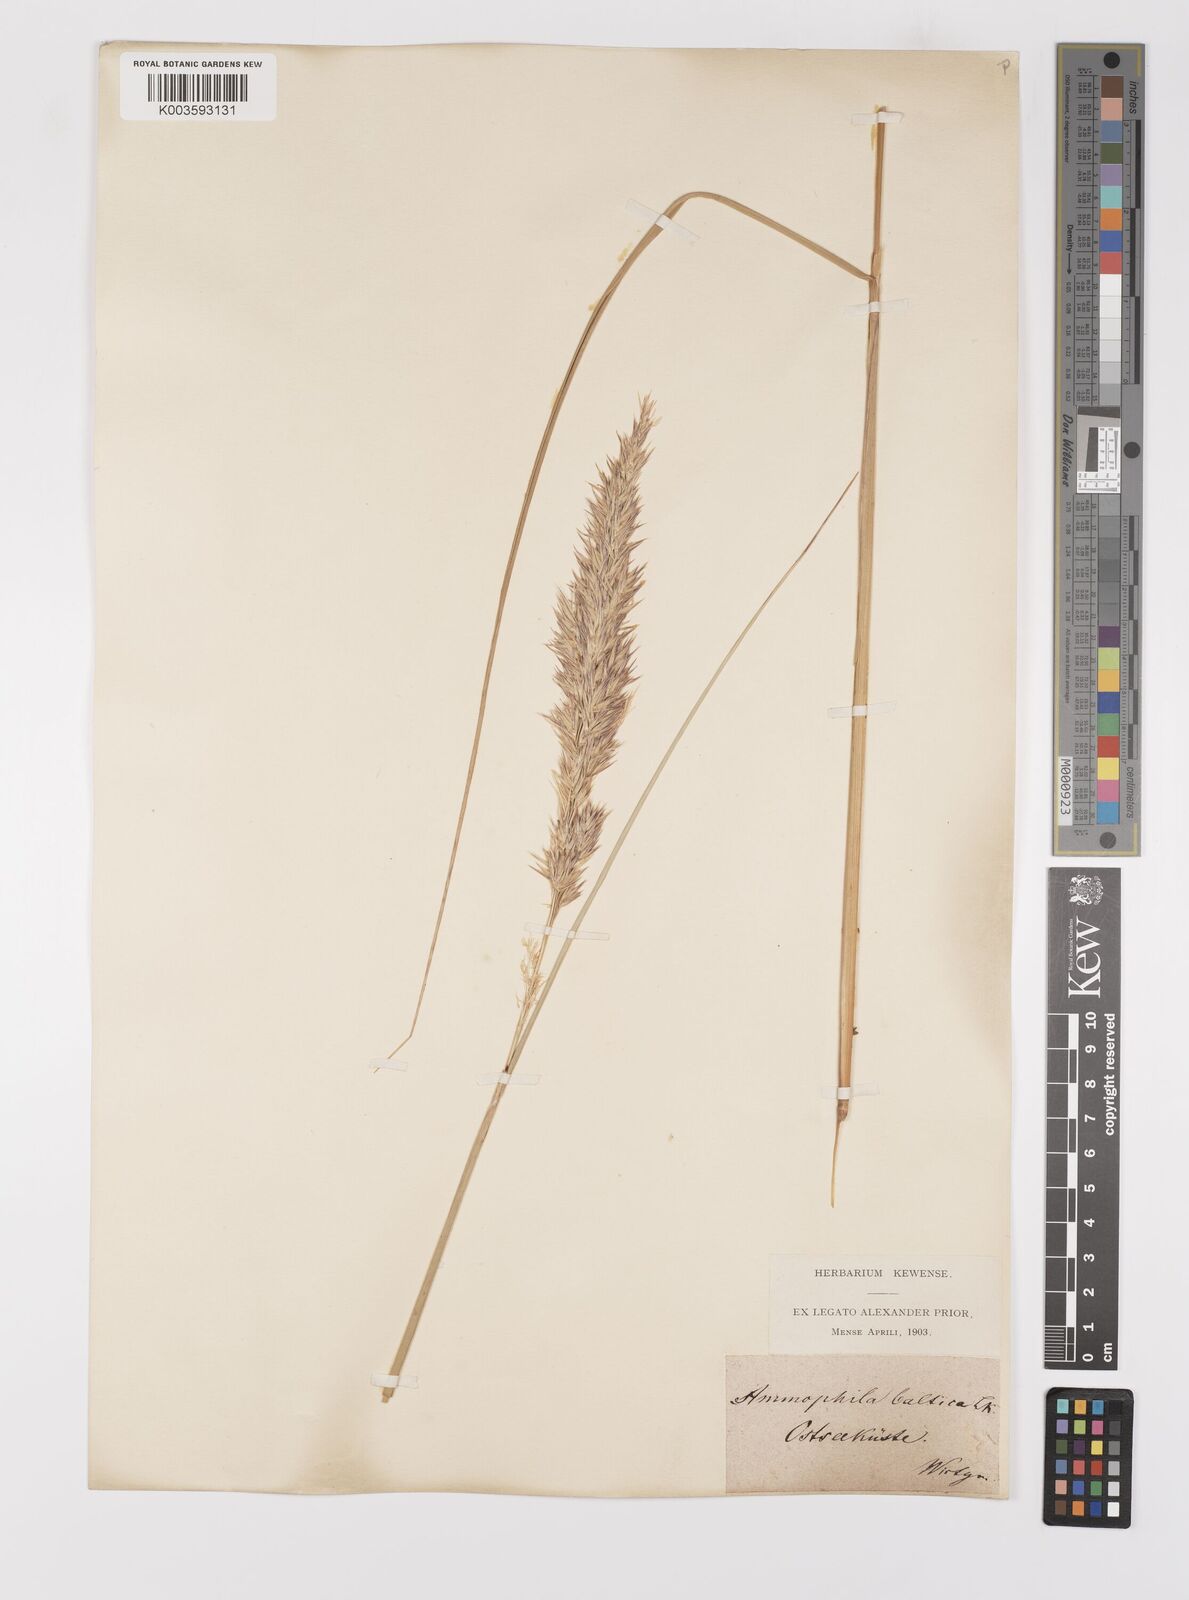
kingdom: Plantae
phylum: Tracheophyta
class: Liliopsida
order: Poales
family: Poaceae
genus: Calamagrostis
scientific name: Calamagrostis baltica
